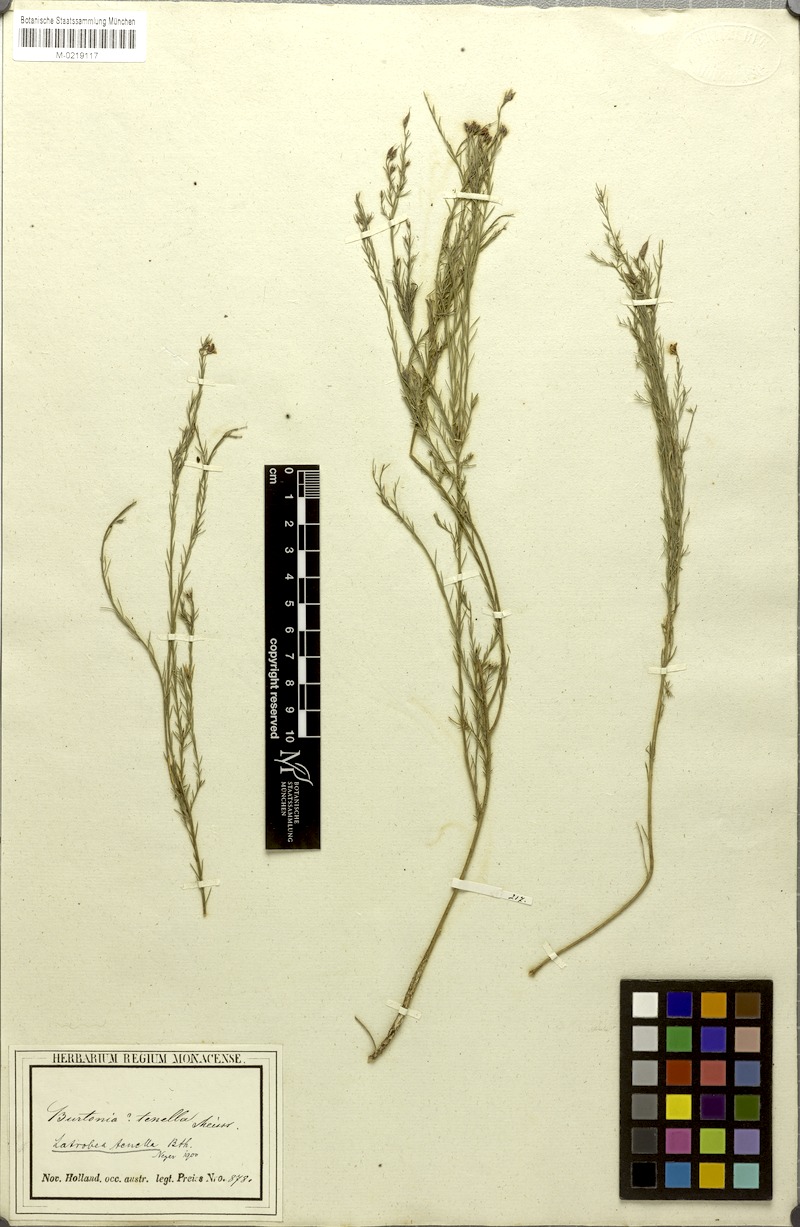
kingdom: Plantae
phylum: Tracheophyta
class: Magnoliopsida
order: Fabales
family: Fabaceae
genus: Latrobea
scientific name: Latrobea tenella
